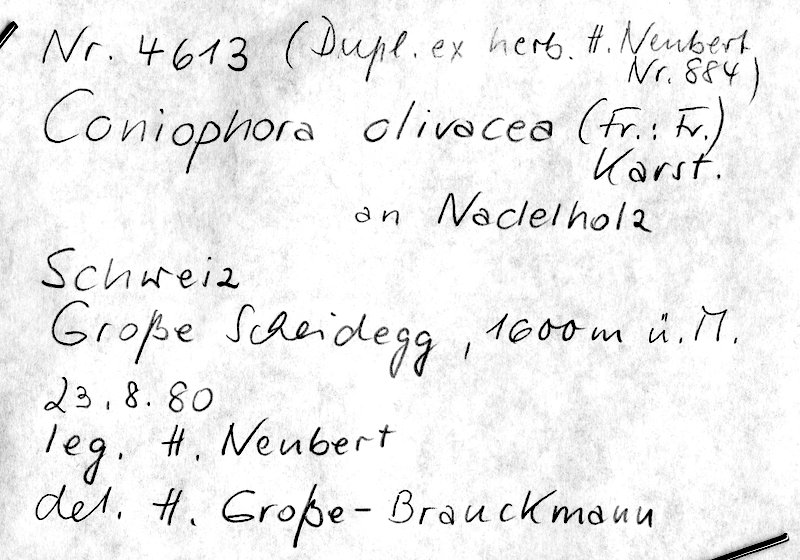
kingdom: Fungi
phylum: Basidiomycota
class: Agaricomycetes
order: Boletales
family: Coniophoraceae
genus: Coniophora
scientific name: Coniophora olivacea
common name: Olive duster
